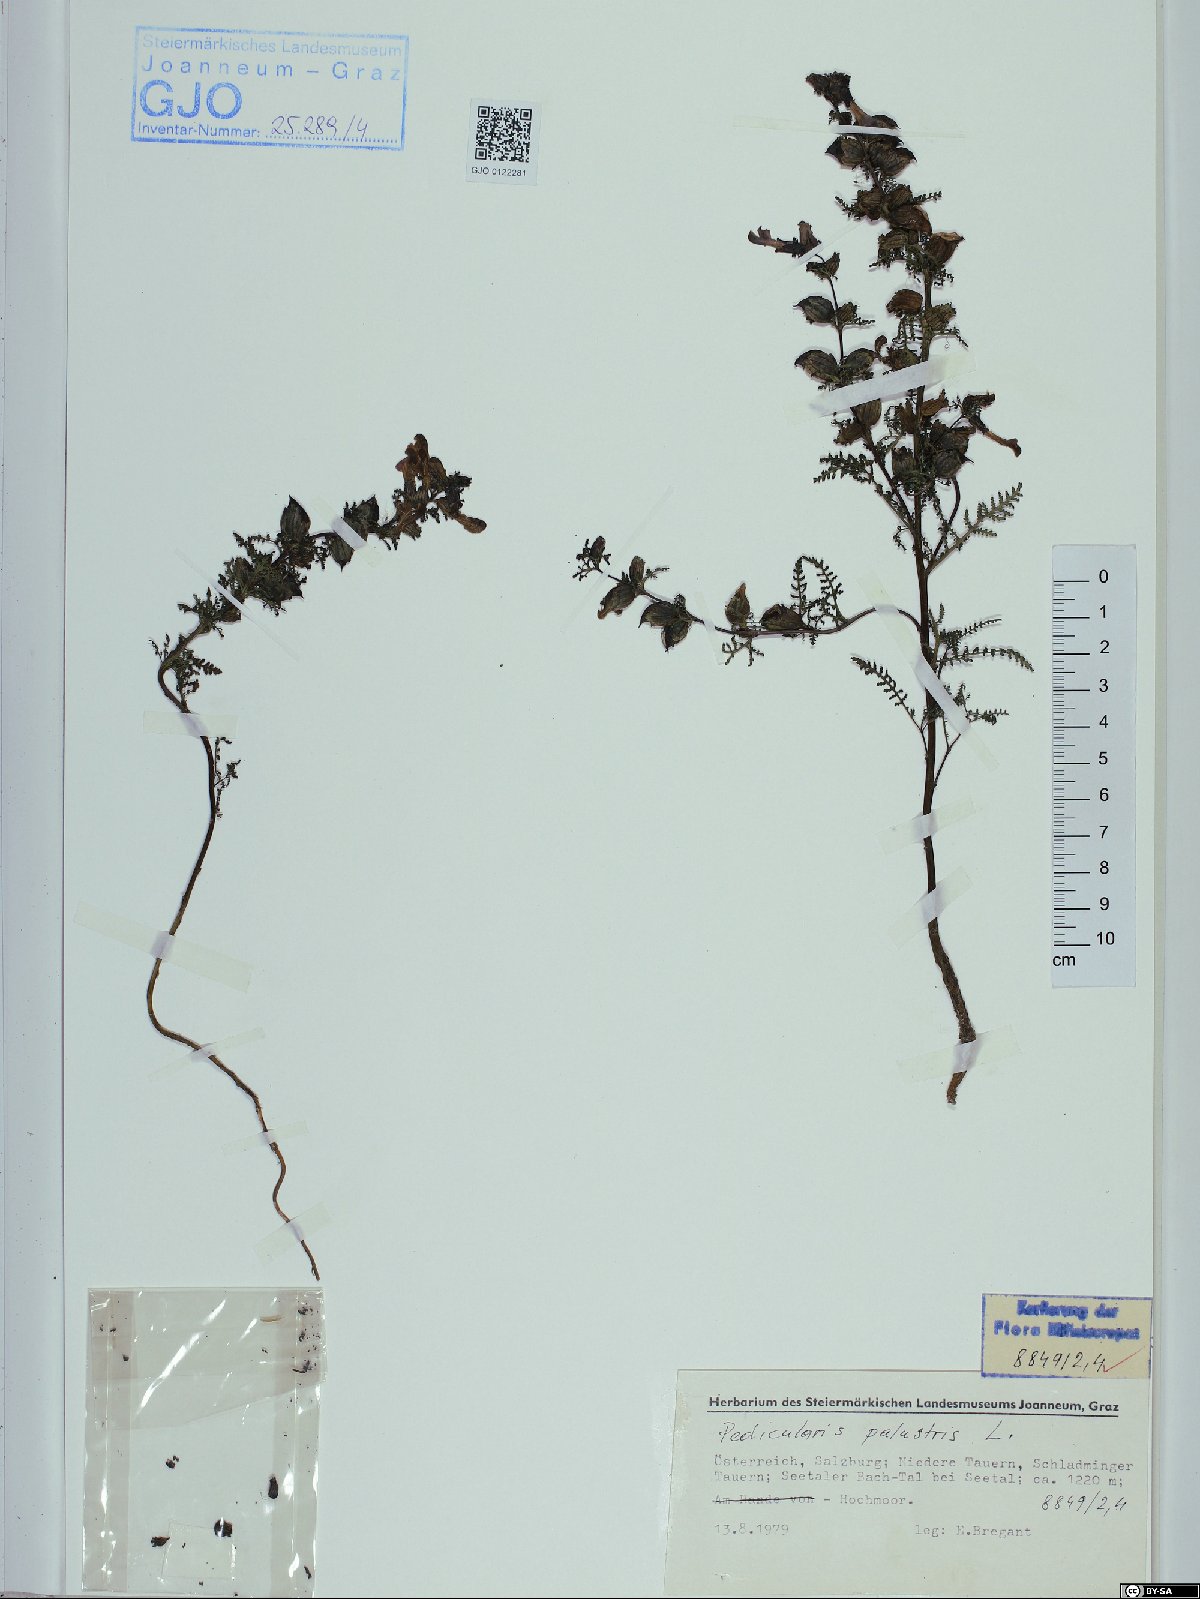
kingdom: Plantae
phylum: Tracheophyta
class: Magnoliopsida
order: Lamiales
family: Orobanchaceae
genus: Pedicularis
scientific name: Pedicularis palustris
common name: Marsh lousewort
